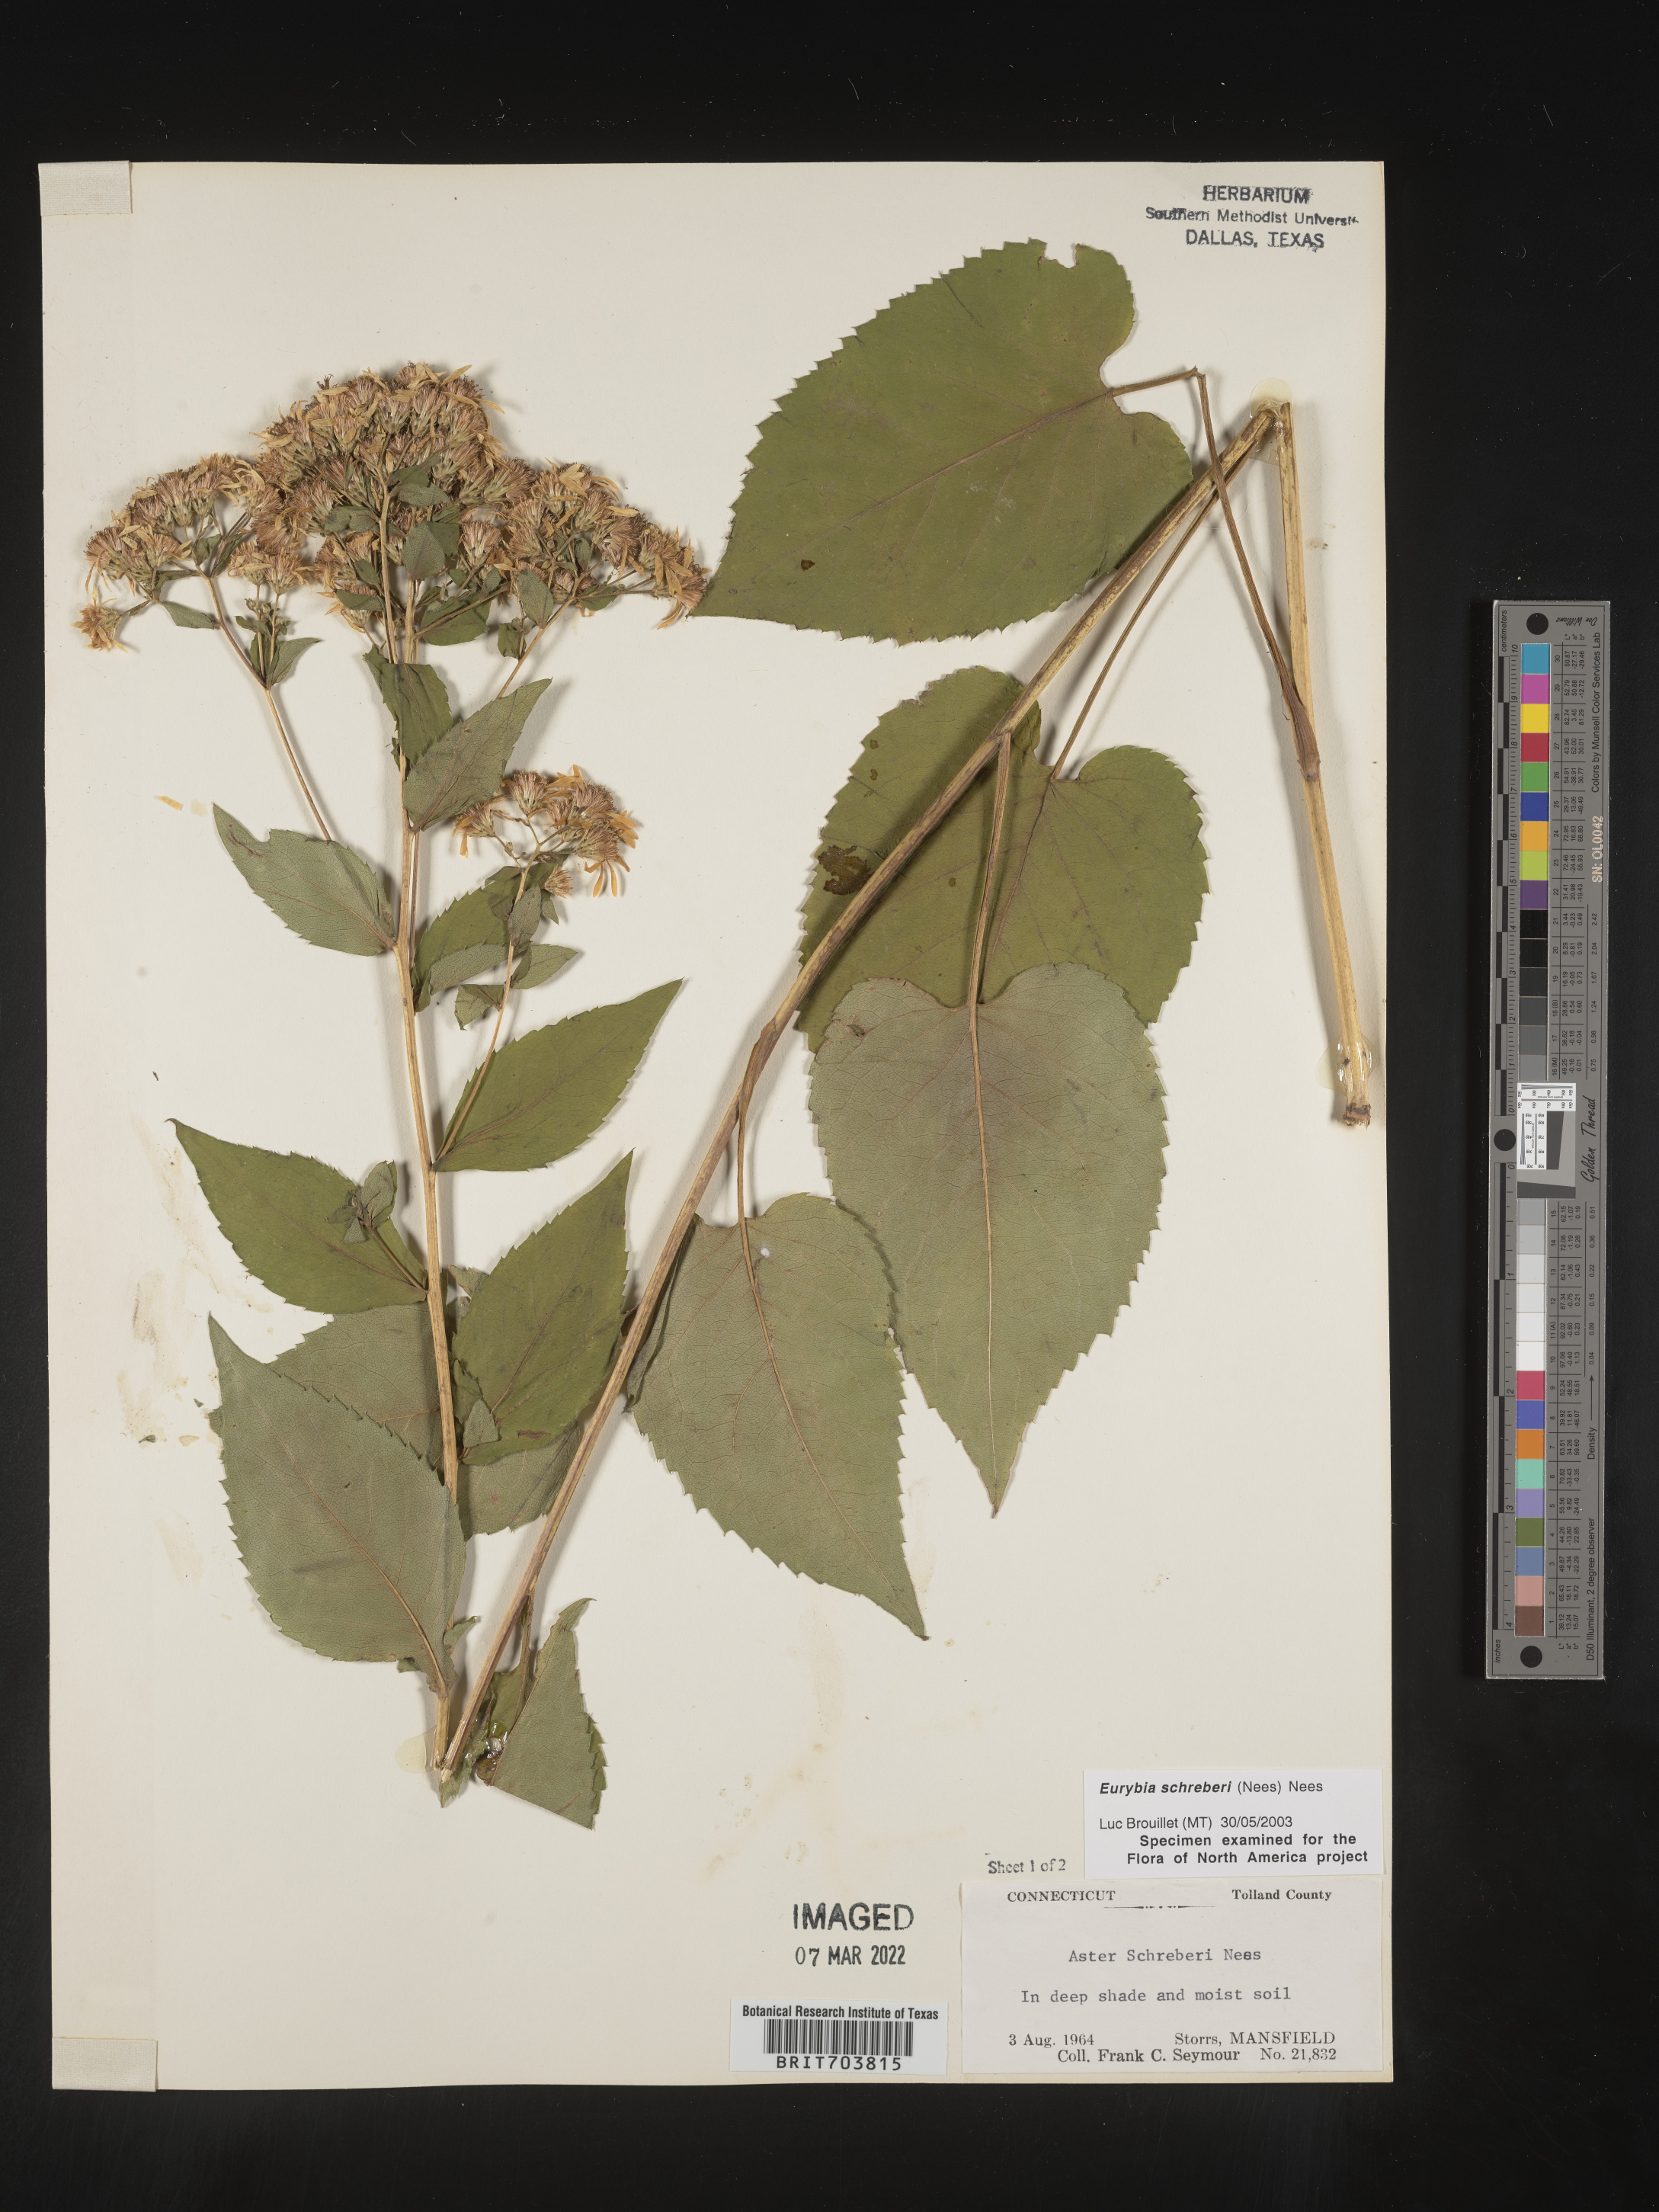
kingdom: Plantae
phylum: Tracheophyta
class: Magnoliopsida
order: Asterales
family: Asteraceae
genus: Eurybia
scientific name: Eurybia schreberi
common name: Schreber's aster
